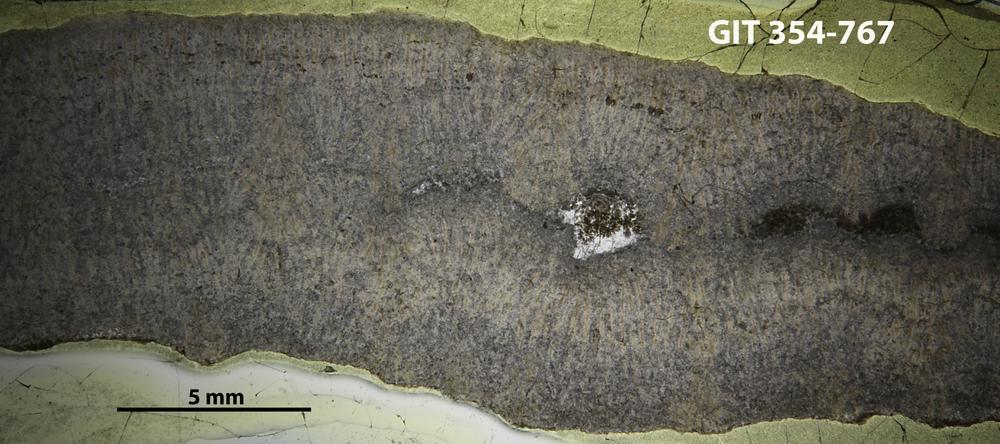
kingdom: Animalia
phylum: Porifera
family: Pseudolabechiidae
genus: Pseudolabechia
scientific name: Pseudolabechia
